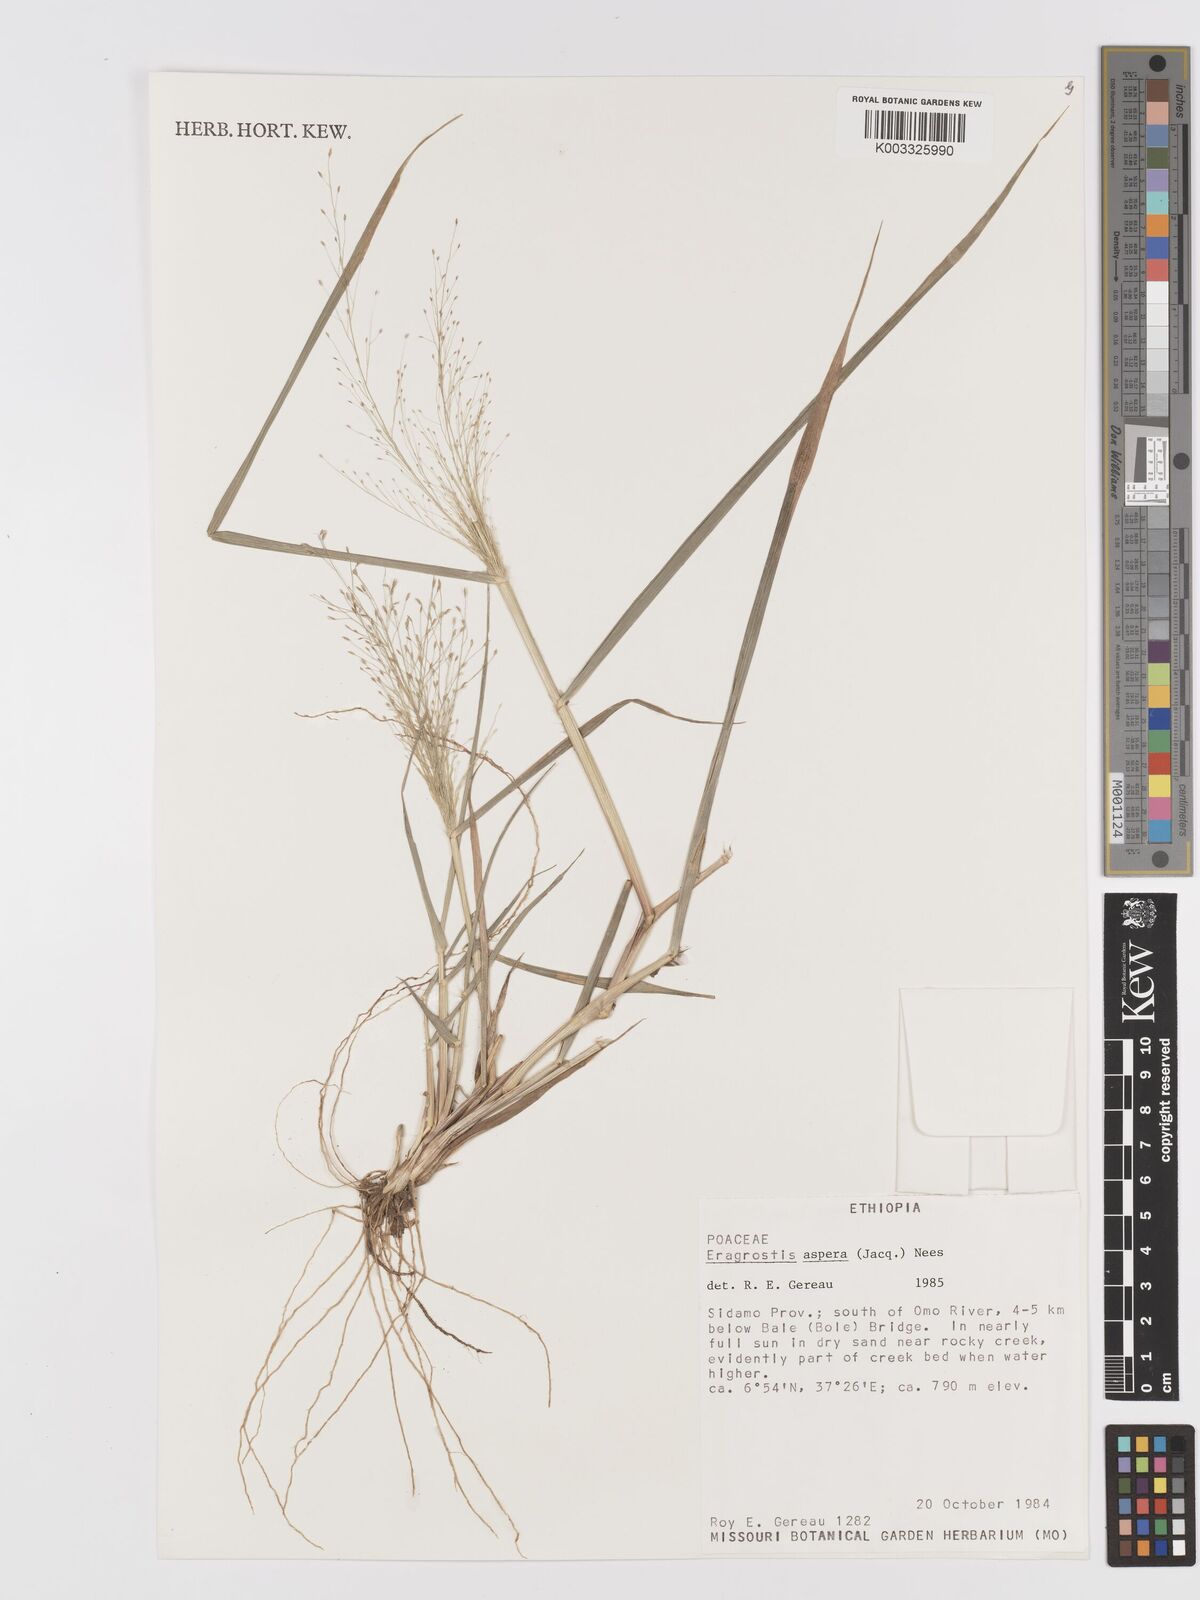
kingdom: Plantae
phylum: Tracheophyta
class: Liliopsida
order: Poales
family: Poaceae
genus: Eragrostis
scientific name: Eragrostis aspera
